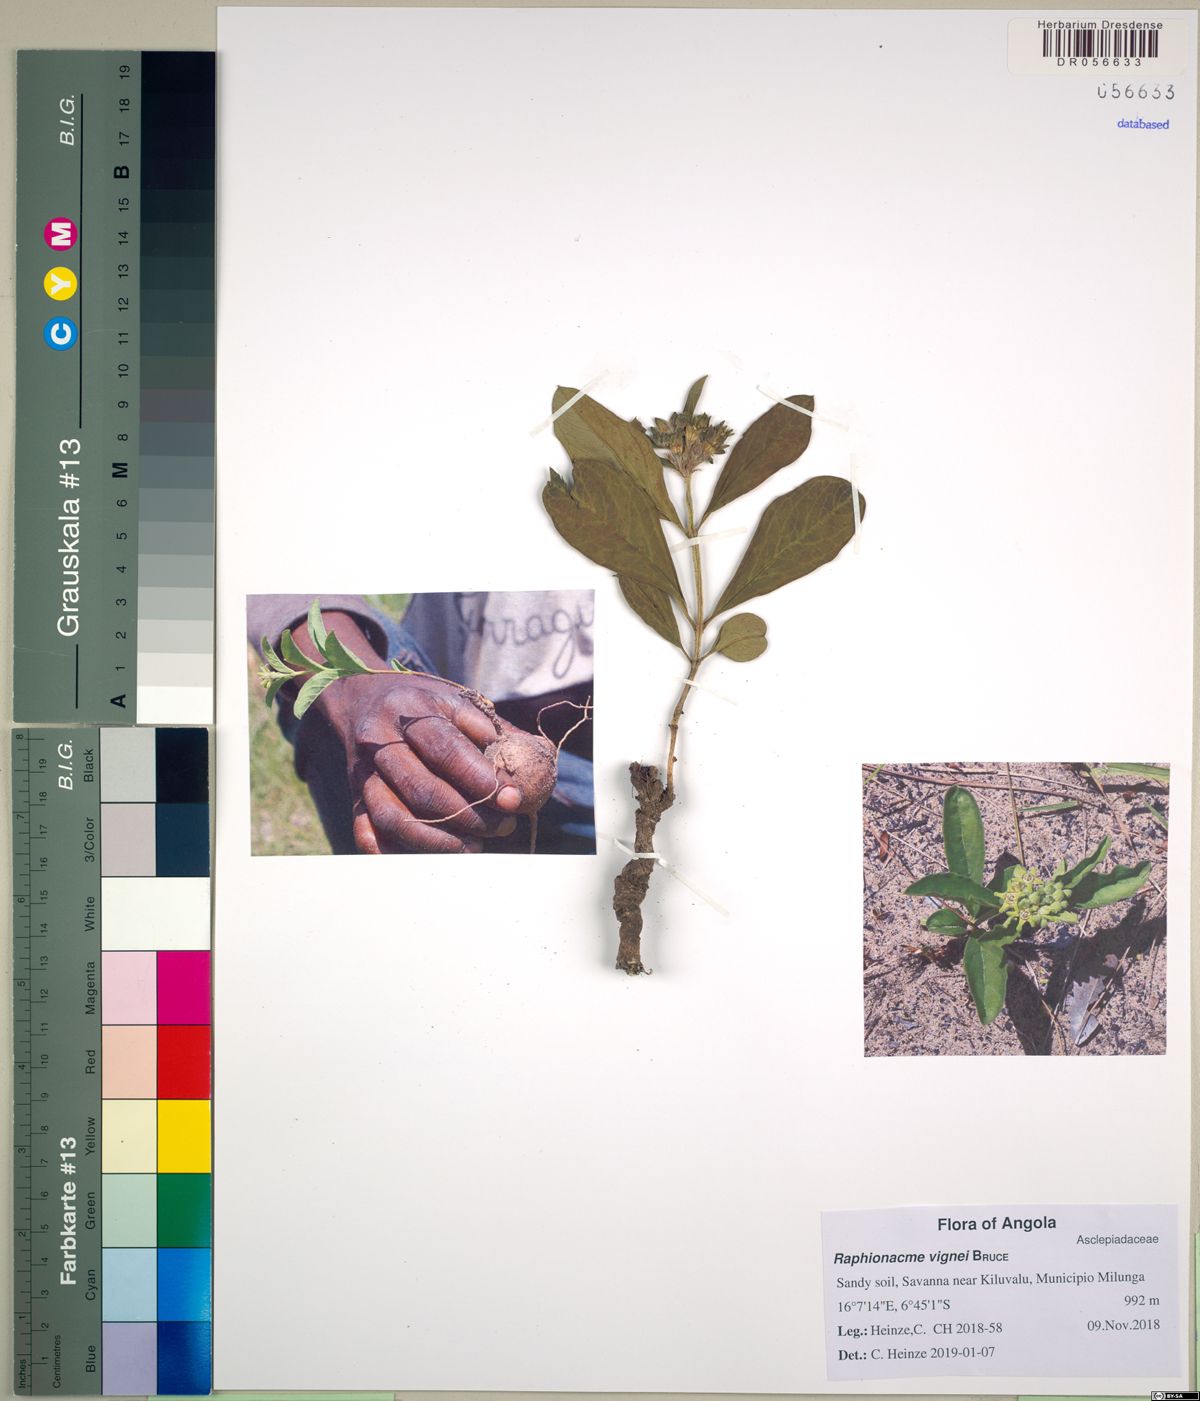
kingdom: Plantae
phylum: Tracheophyta
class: Magnoliopsida
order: Gentianales
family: Apocynaceae
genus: Raphionacme
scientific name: Raphionacme madiensis
